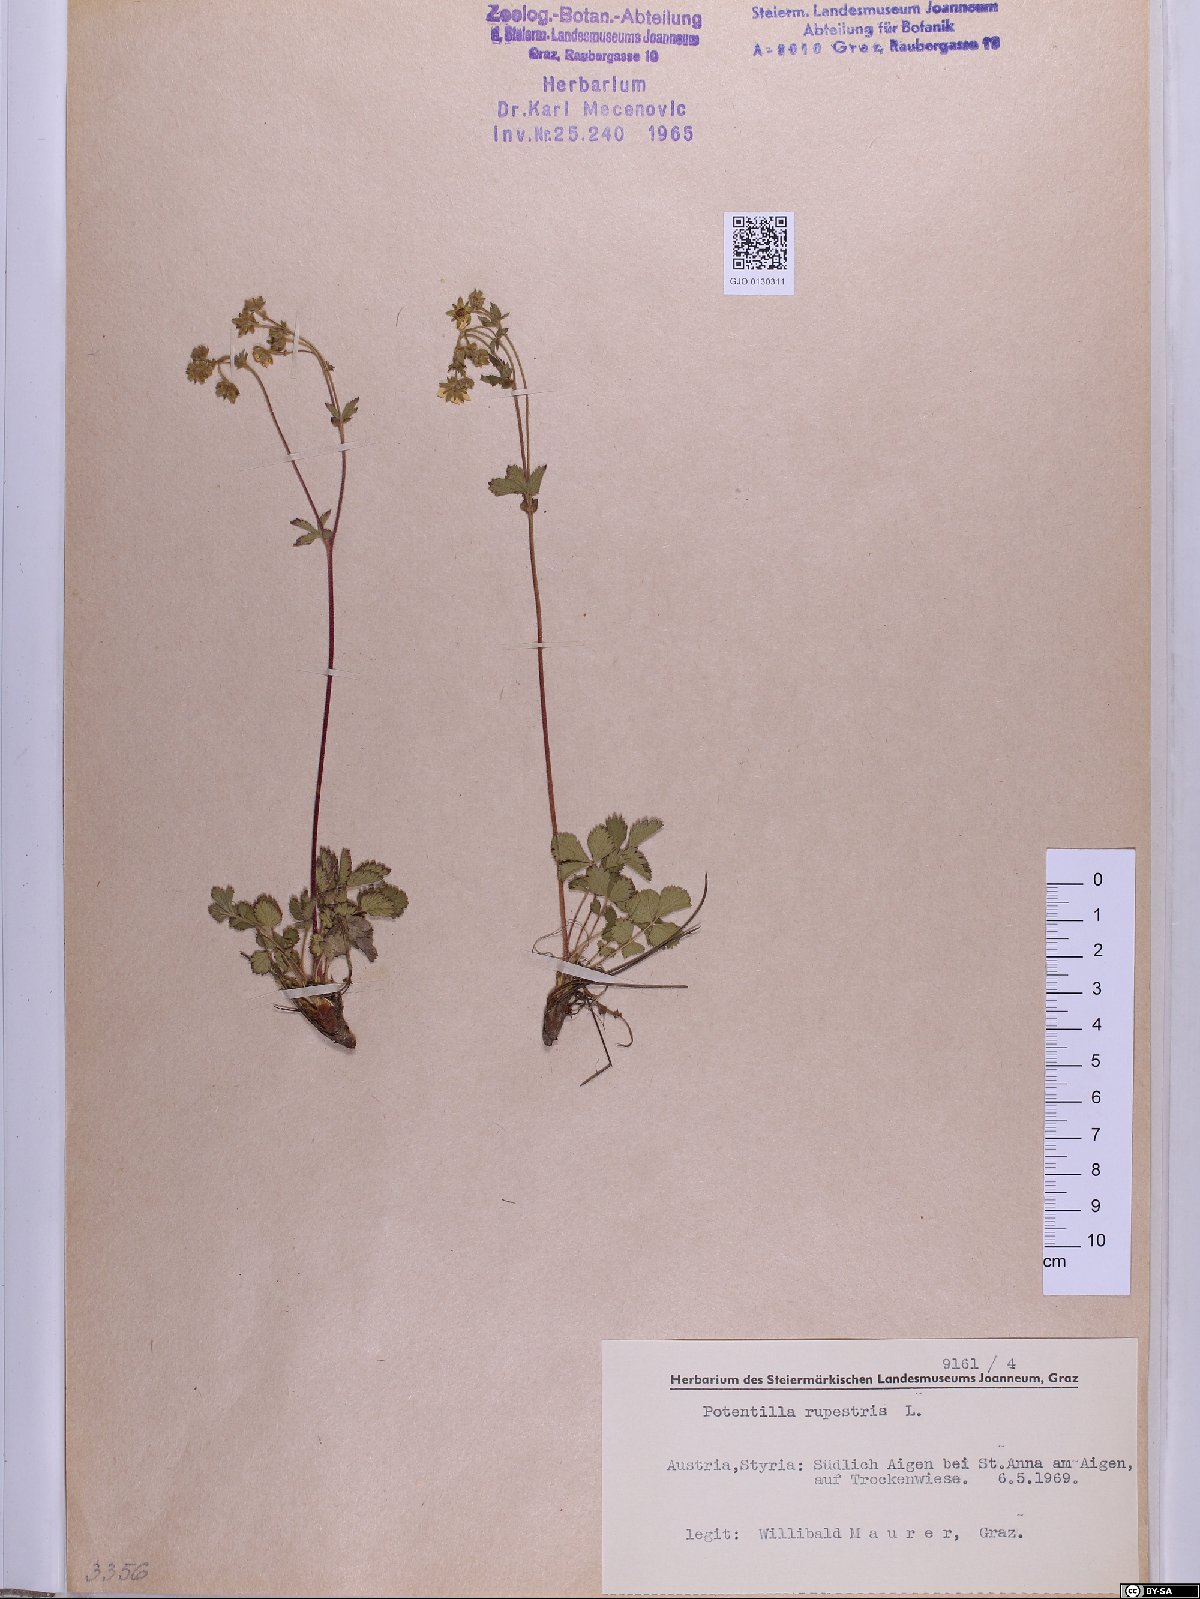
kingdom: Plantae
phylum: Tracheophyta
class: Magnoliopsida
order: Rosales
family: Rosaceae
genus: Drymocallis
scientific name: Drymocallis rupestris
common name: Rock cinquefoil
